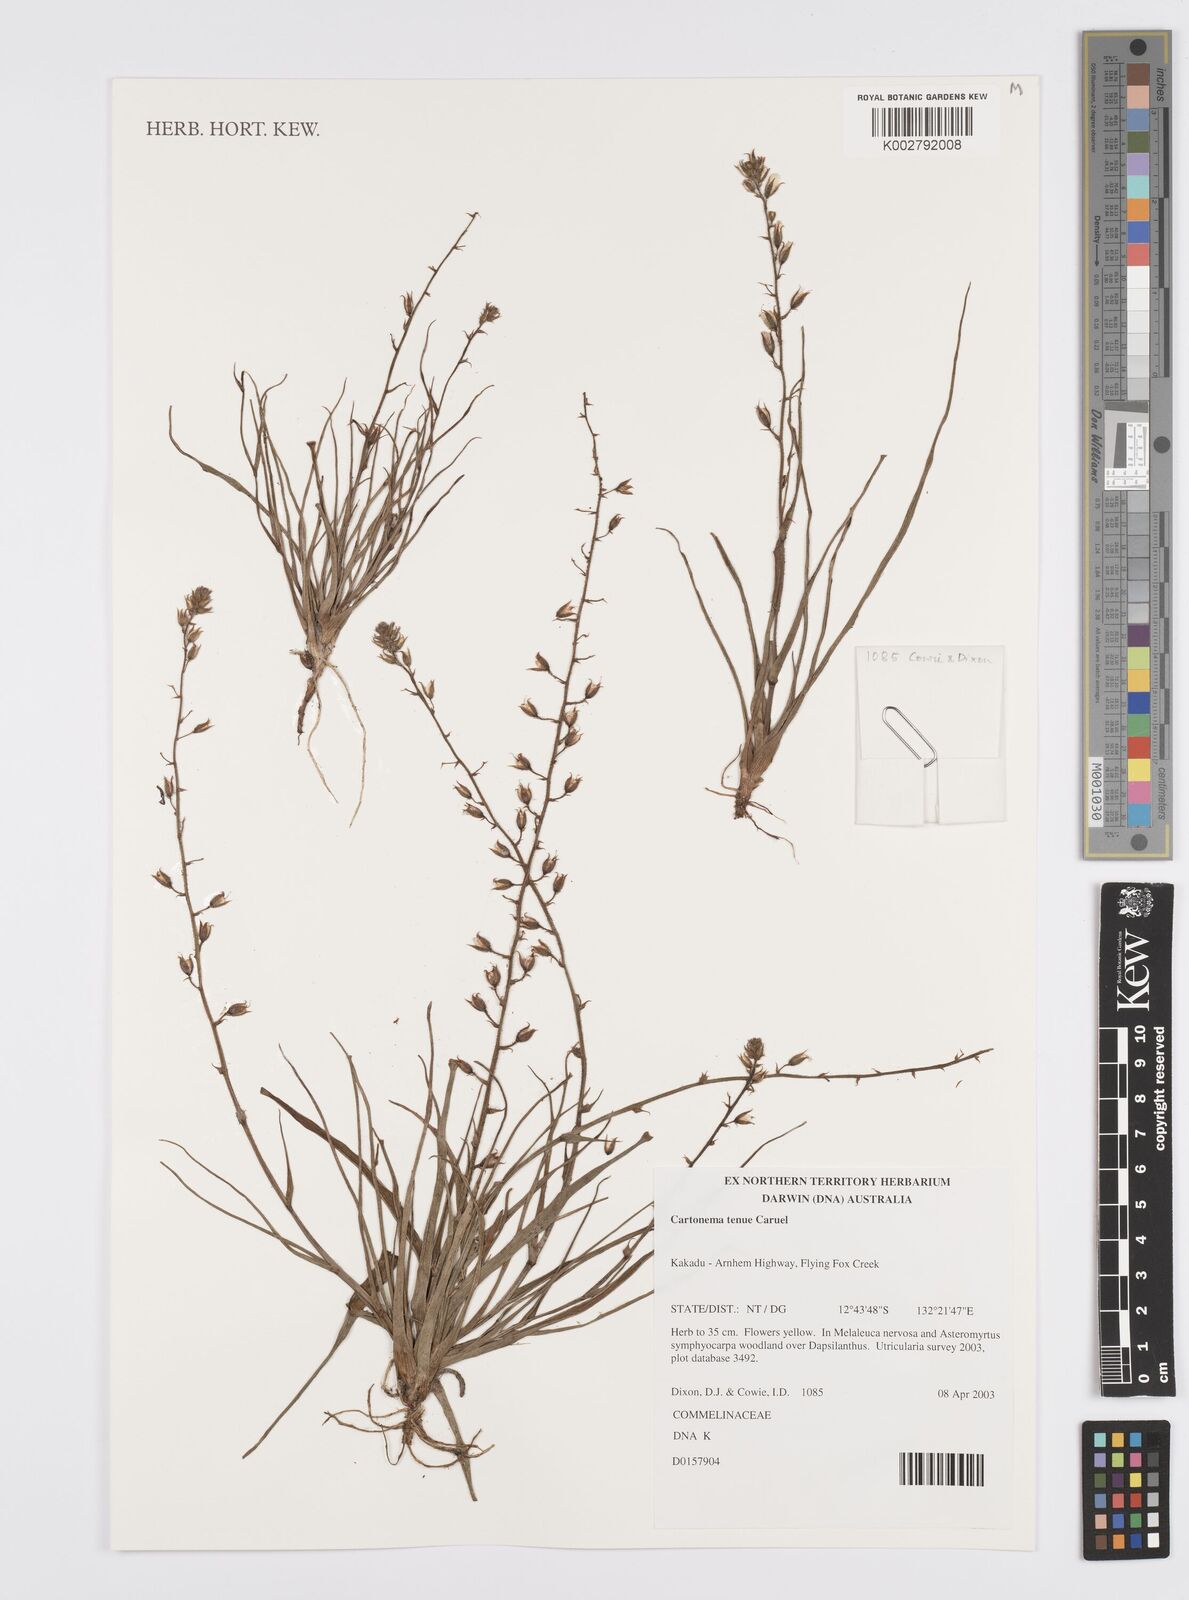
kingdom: Plantae
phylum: Tracheophyta
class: Liliopsida
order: Commelinales
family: Commelinaceae
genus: Cartonema
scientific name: Cartonema tenue
